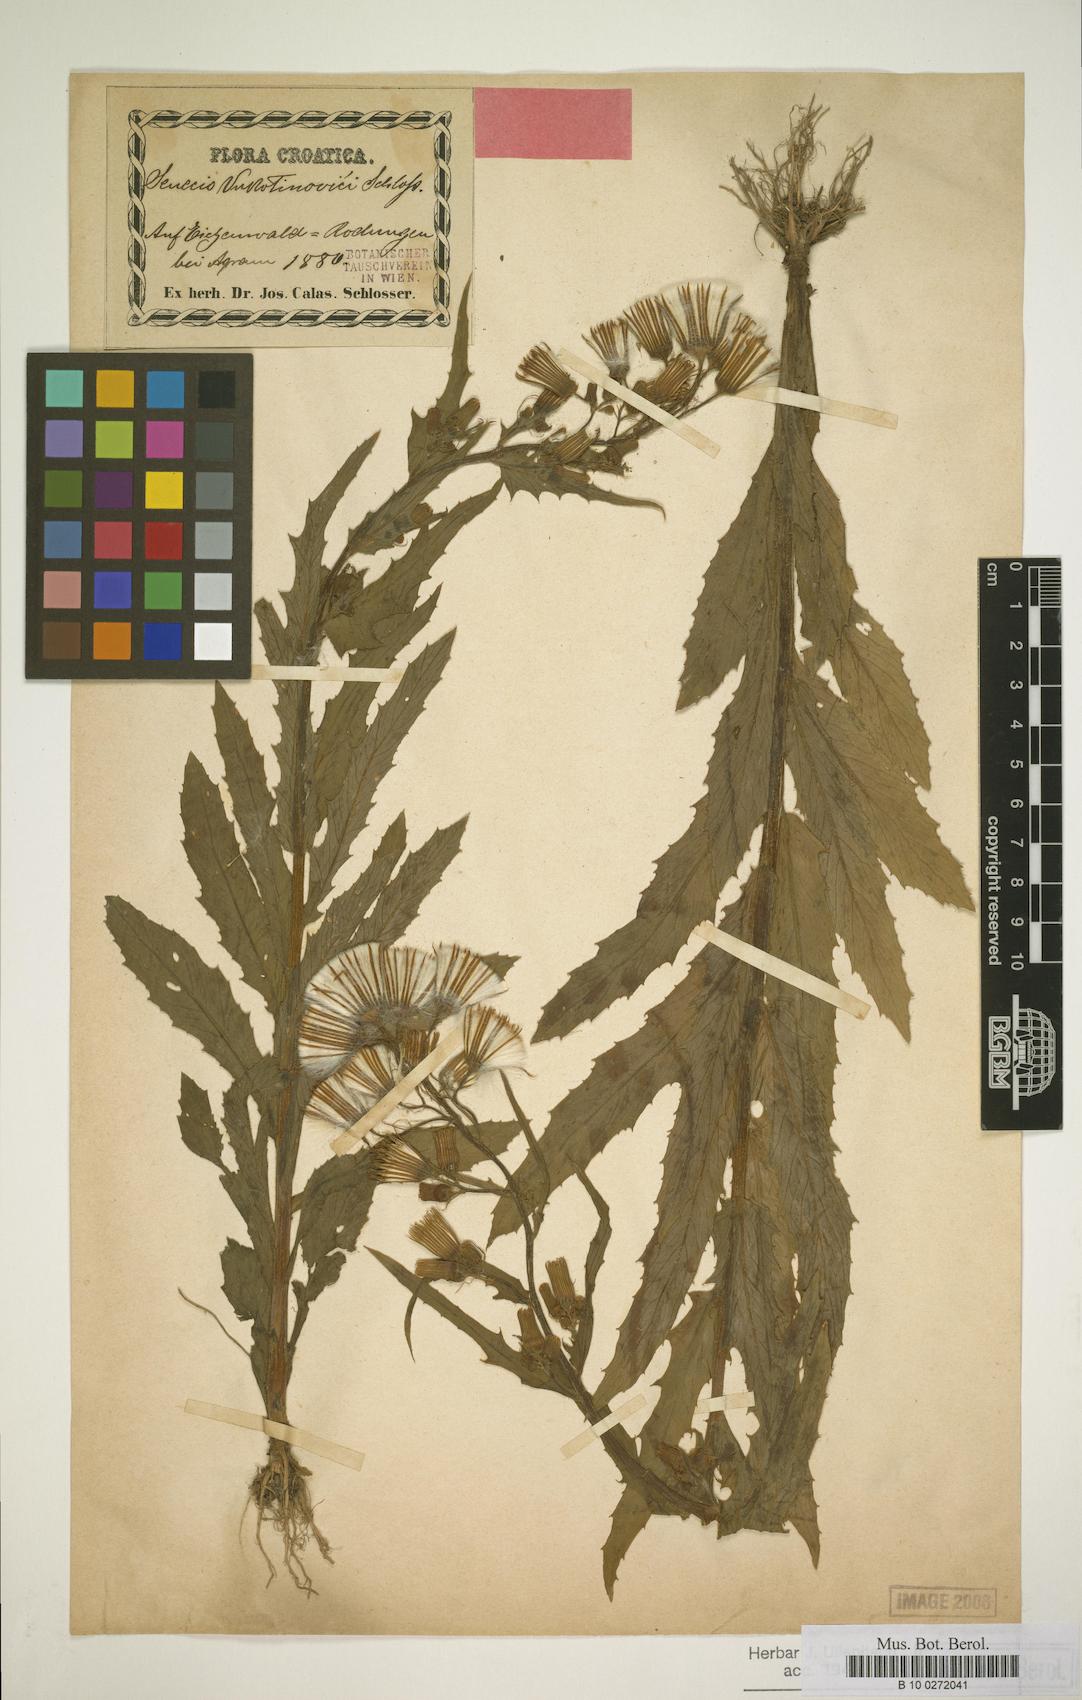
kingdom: Plantae
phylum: Tracheophyta
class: Magnoliopsida
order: Asterales
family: Asteraceae
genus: Erechtites
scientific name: Erechtites hieraciifolius
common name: American burnweed
